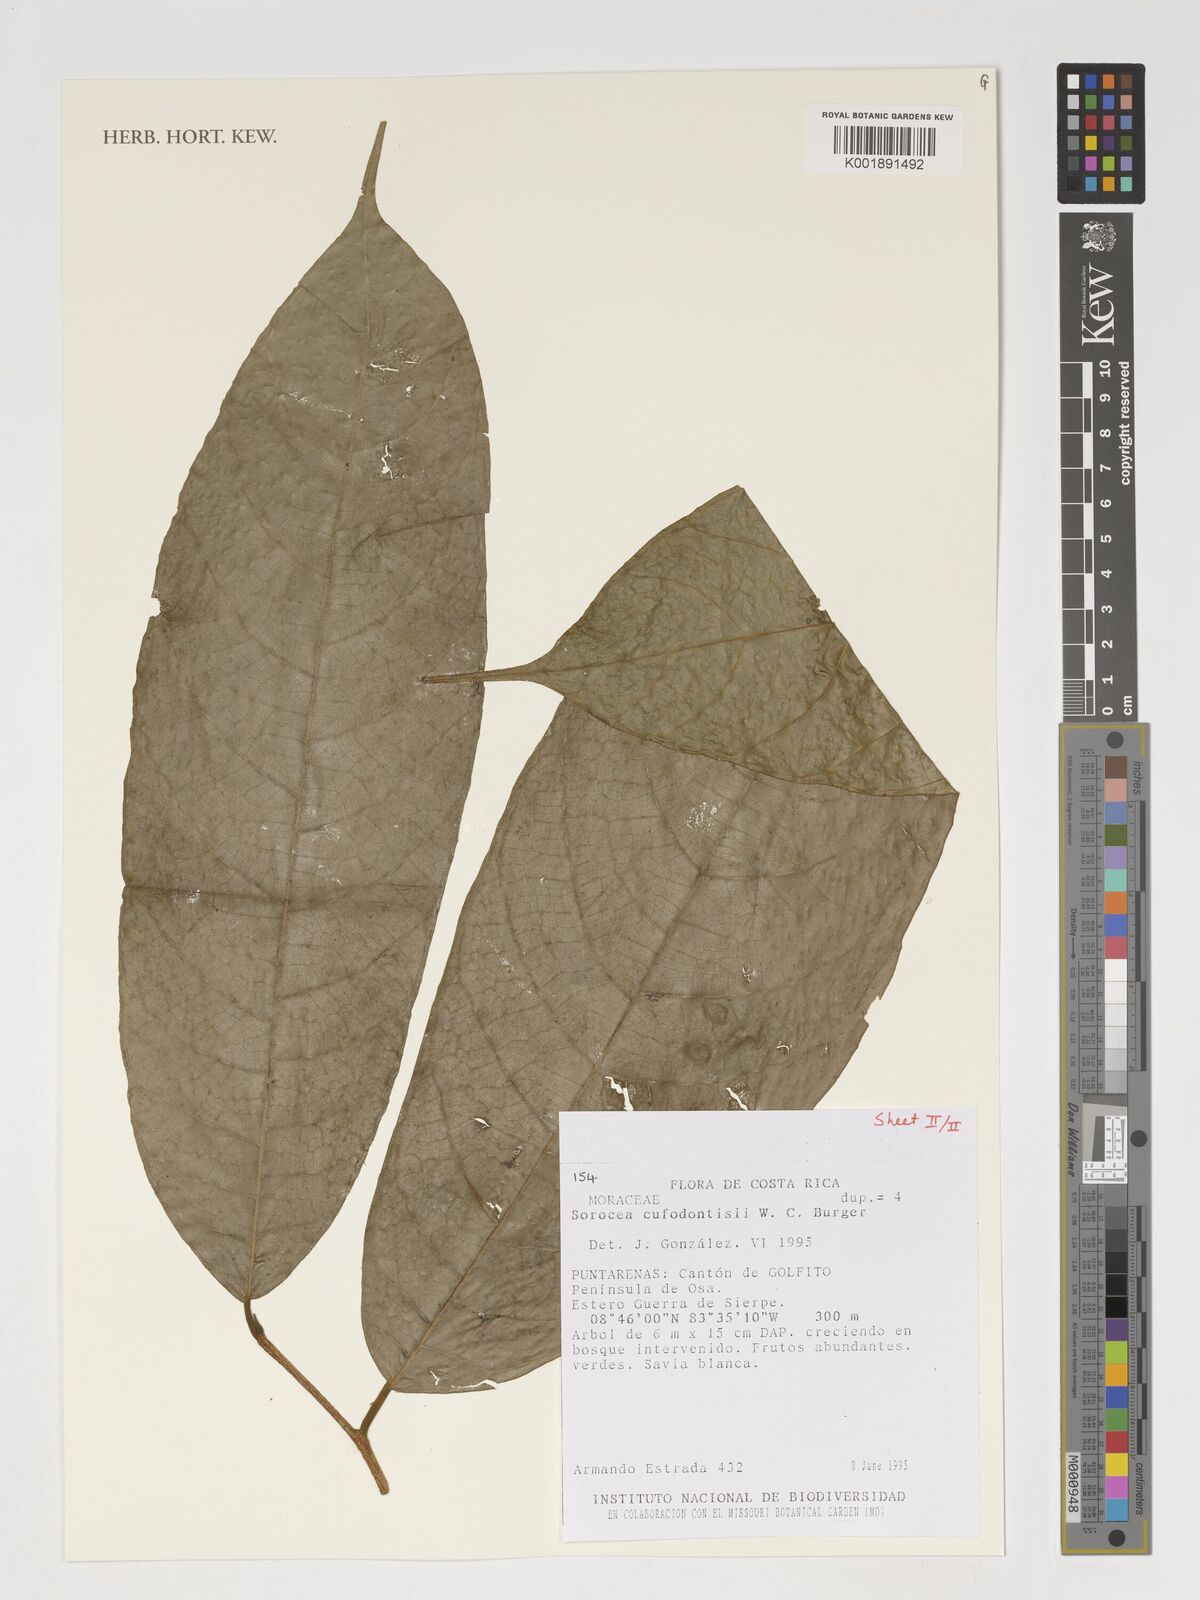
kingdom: Plantae
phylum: Tracheophyta
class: Magnoliopsida
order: Rosales
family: Moraceae
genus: Sorocea
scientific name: Sorocea pubivena
